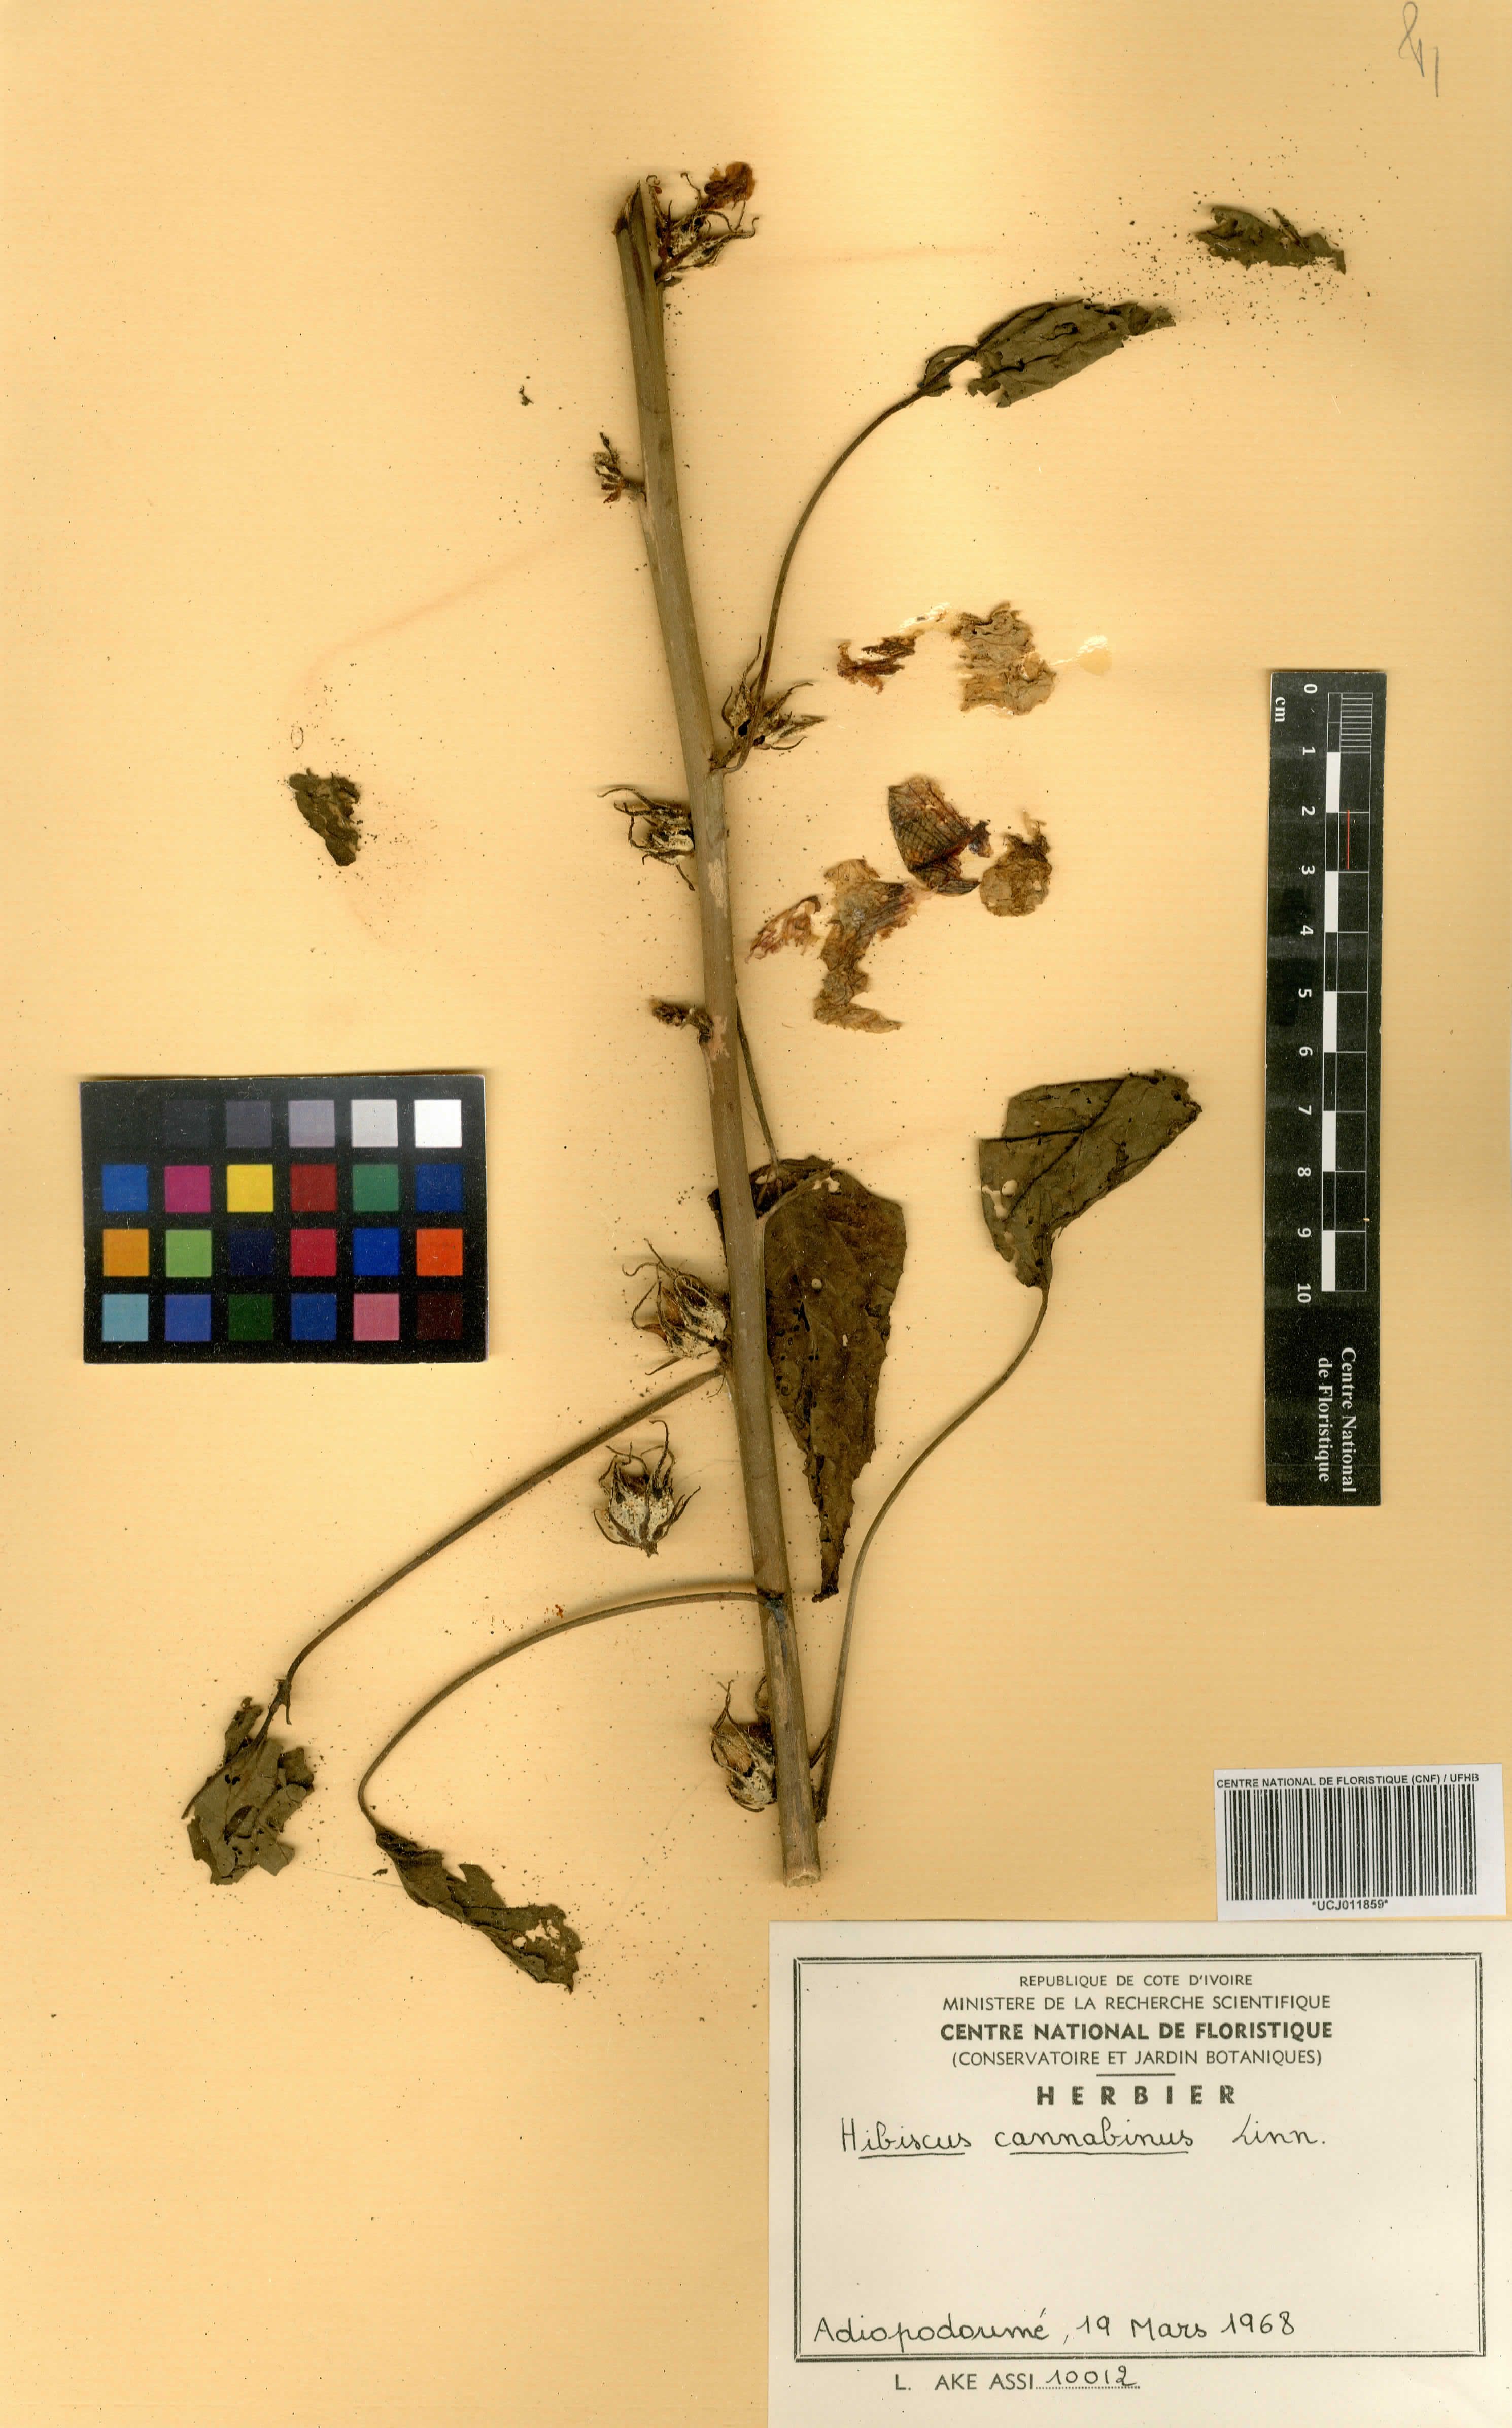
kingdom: Plantae
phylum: Tracheophyta
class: Magnoliopsida
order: Malvales
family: Malvaceae
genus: Hibiscus
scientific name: Hibiscus cannabinus
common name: Brown indianhemp
